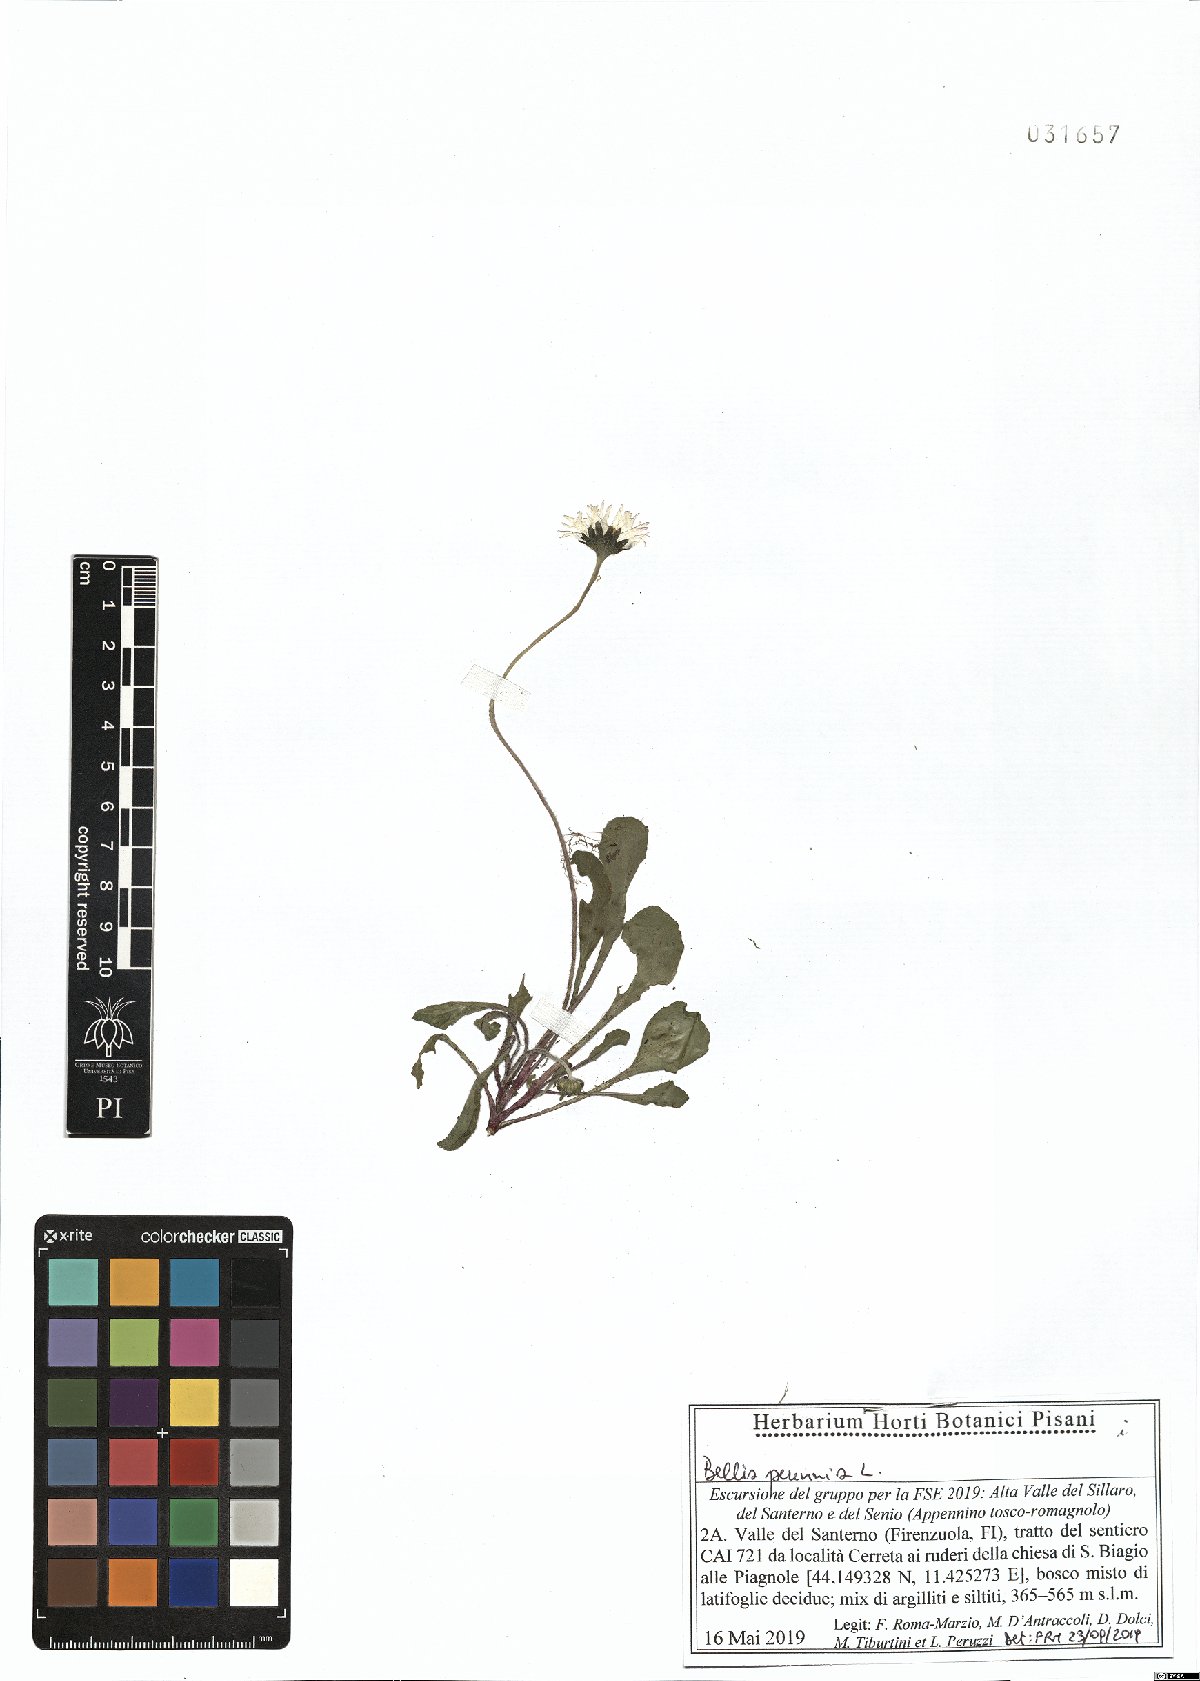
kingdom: Plantae
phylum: Tracheophyta
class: Magnoliopsida
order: Asterales
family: Asteraceae
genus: Bellis
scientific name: Bellis perennis
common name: Lawndaisy
